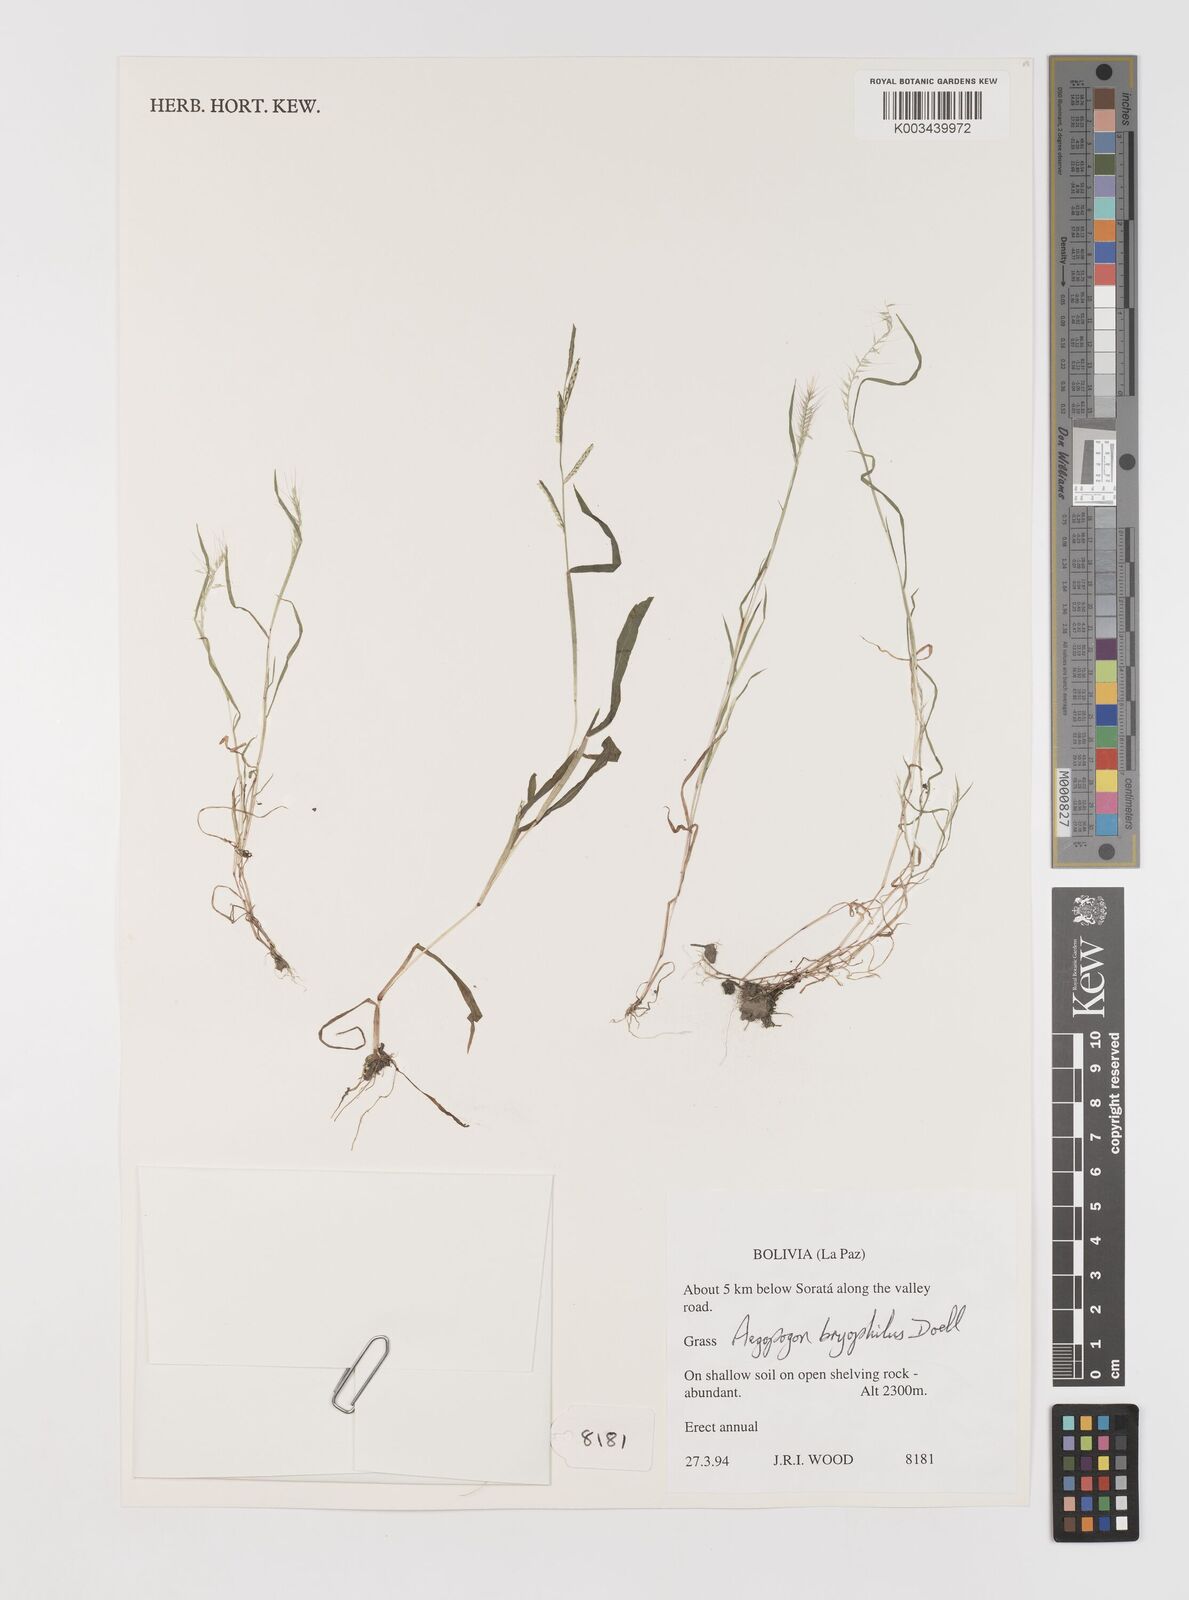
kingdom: Plantae
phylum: Tracheophyta
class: Liliopsida
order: Poales
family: Poaceae
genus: Muhlenbergia
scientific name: Muhlenbergia bryophilus
